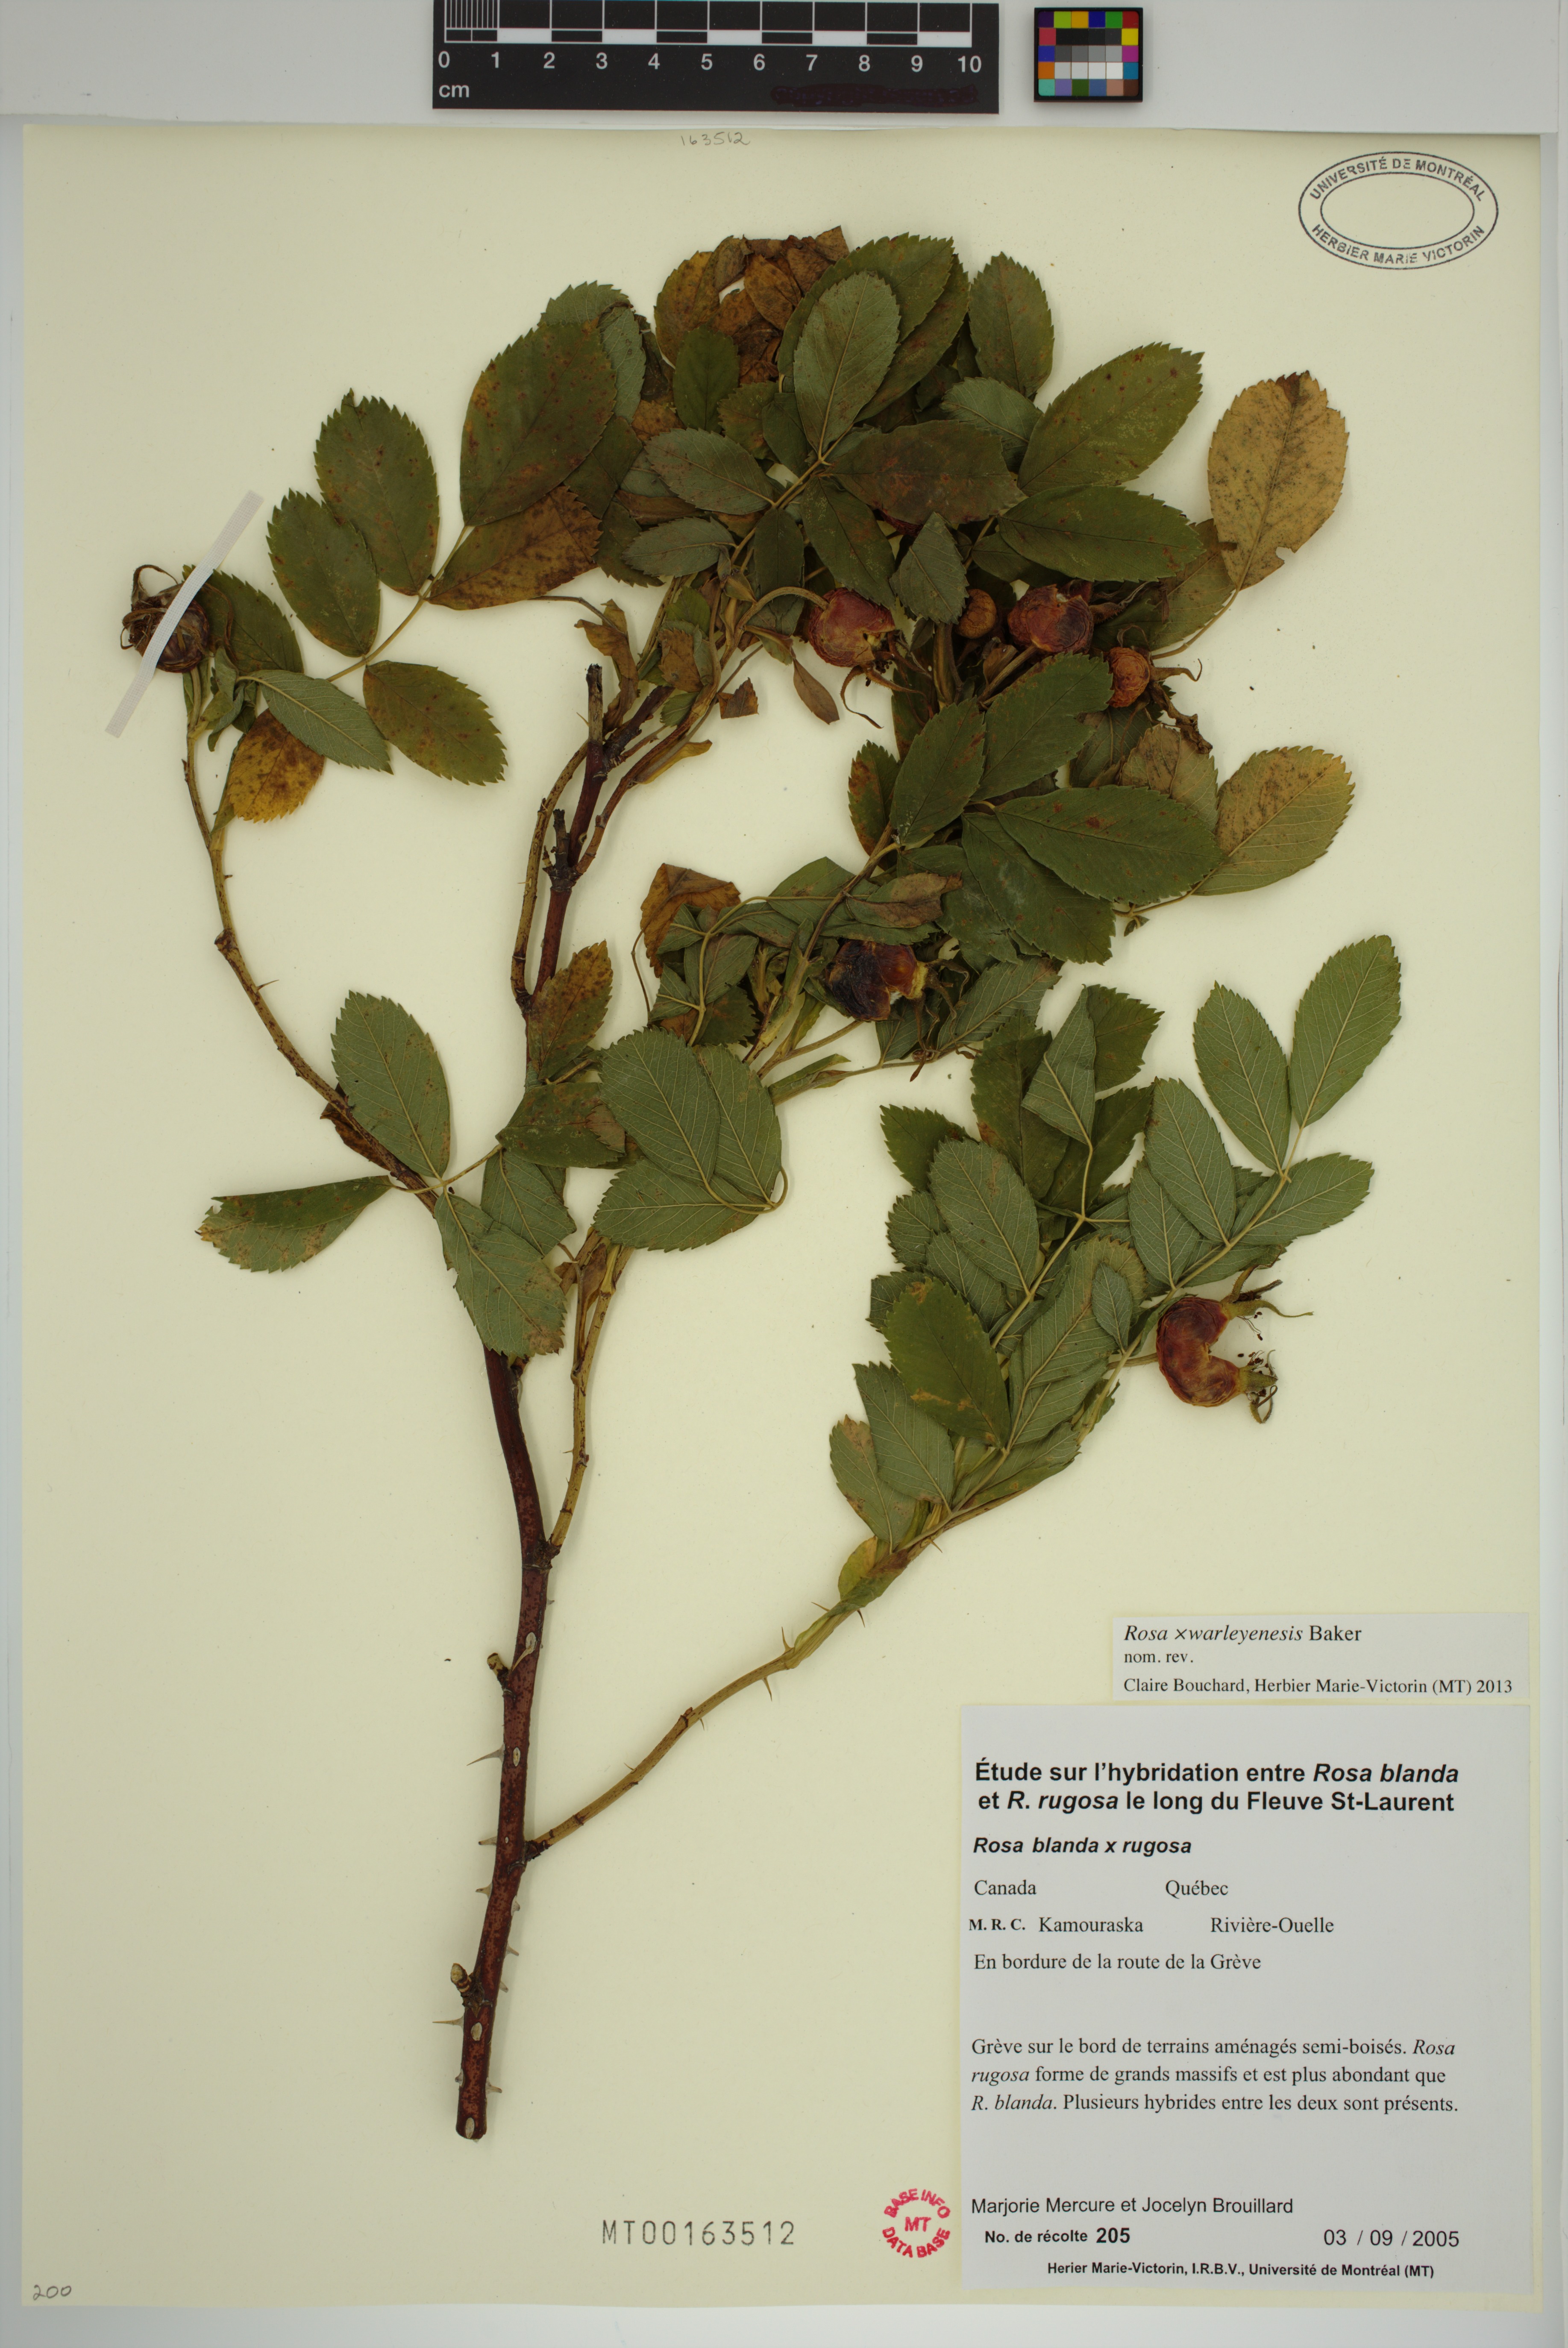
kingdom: Plantae
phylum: Tracheophyta
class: Magnoliopsida
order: Rosales
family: Rosaceae
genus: Rosa
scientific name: Rosa warleyensis
